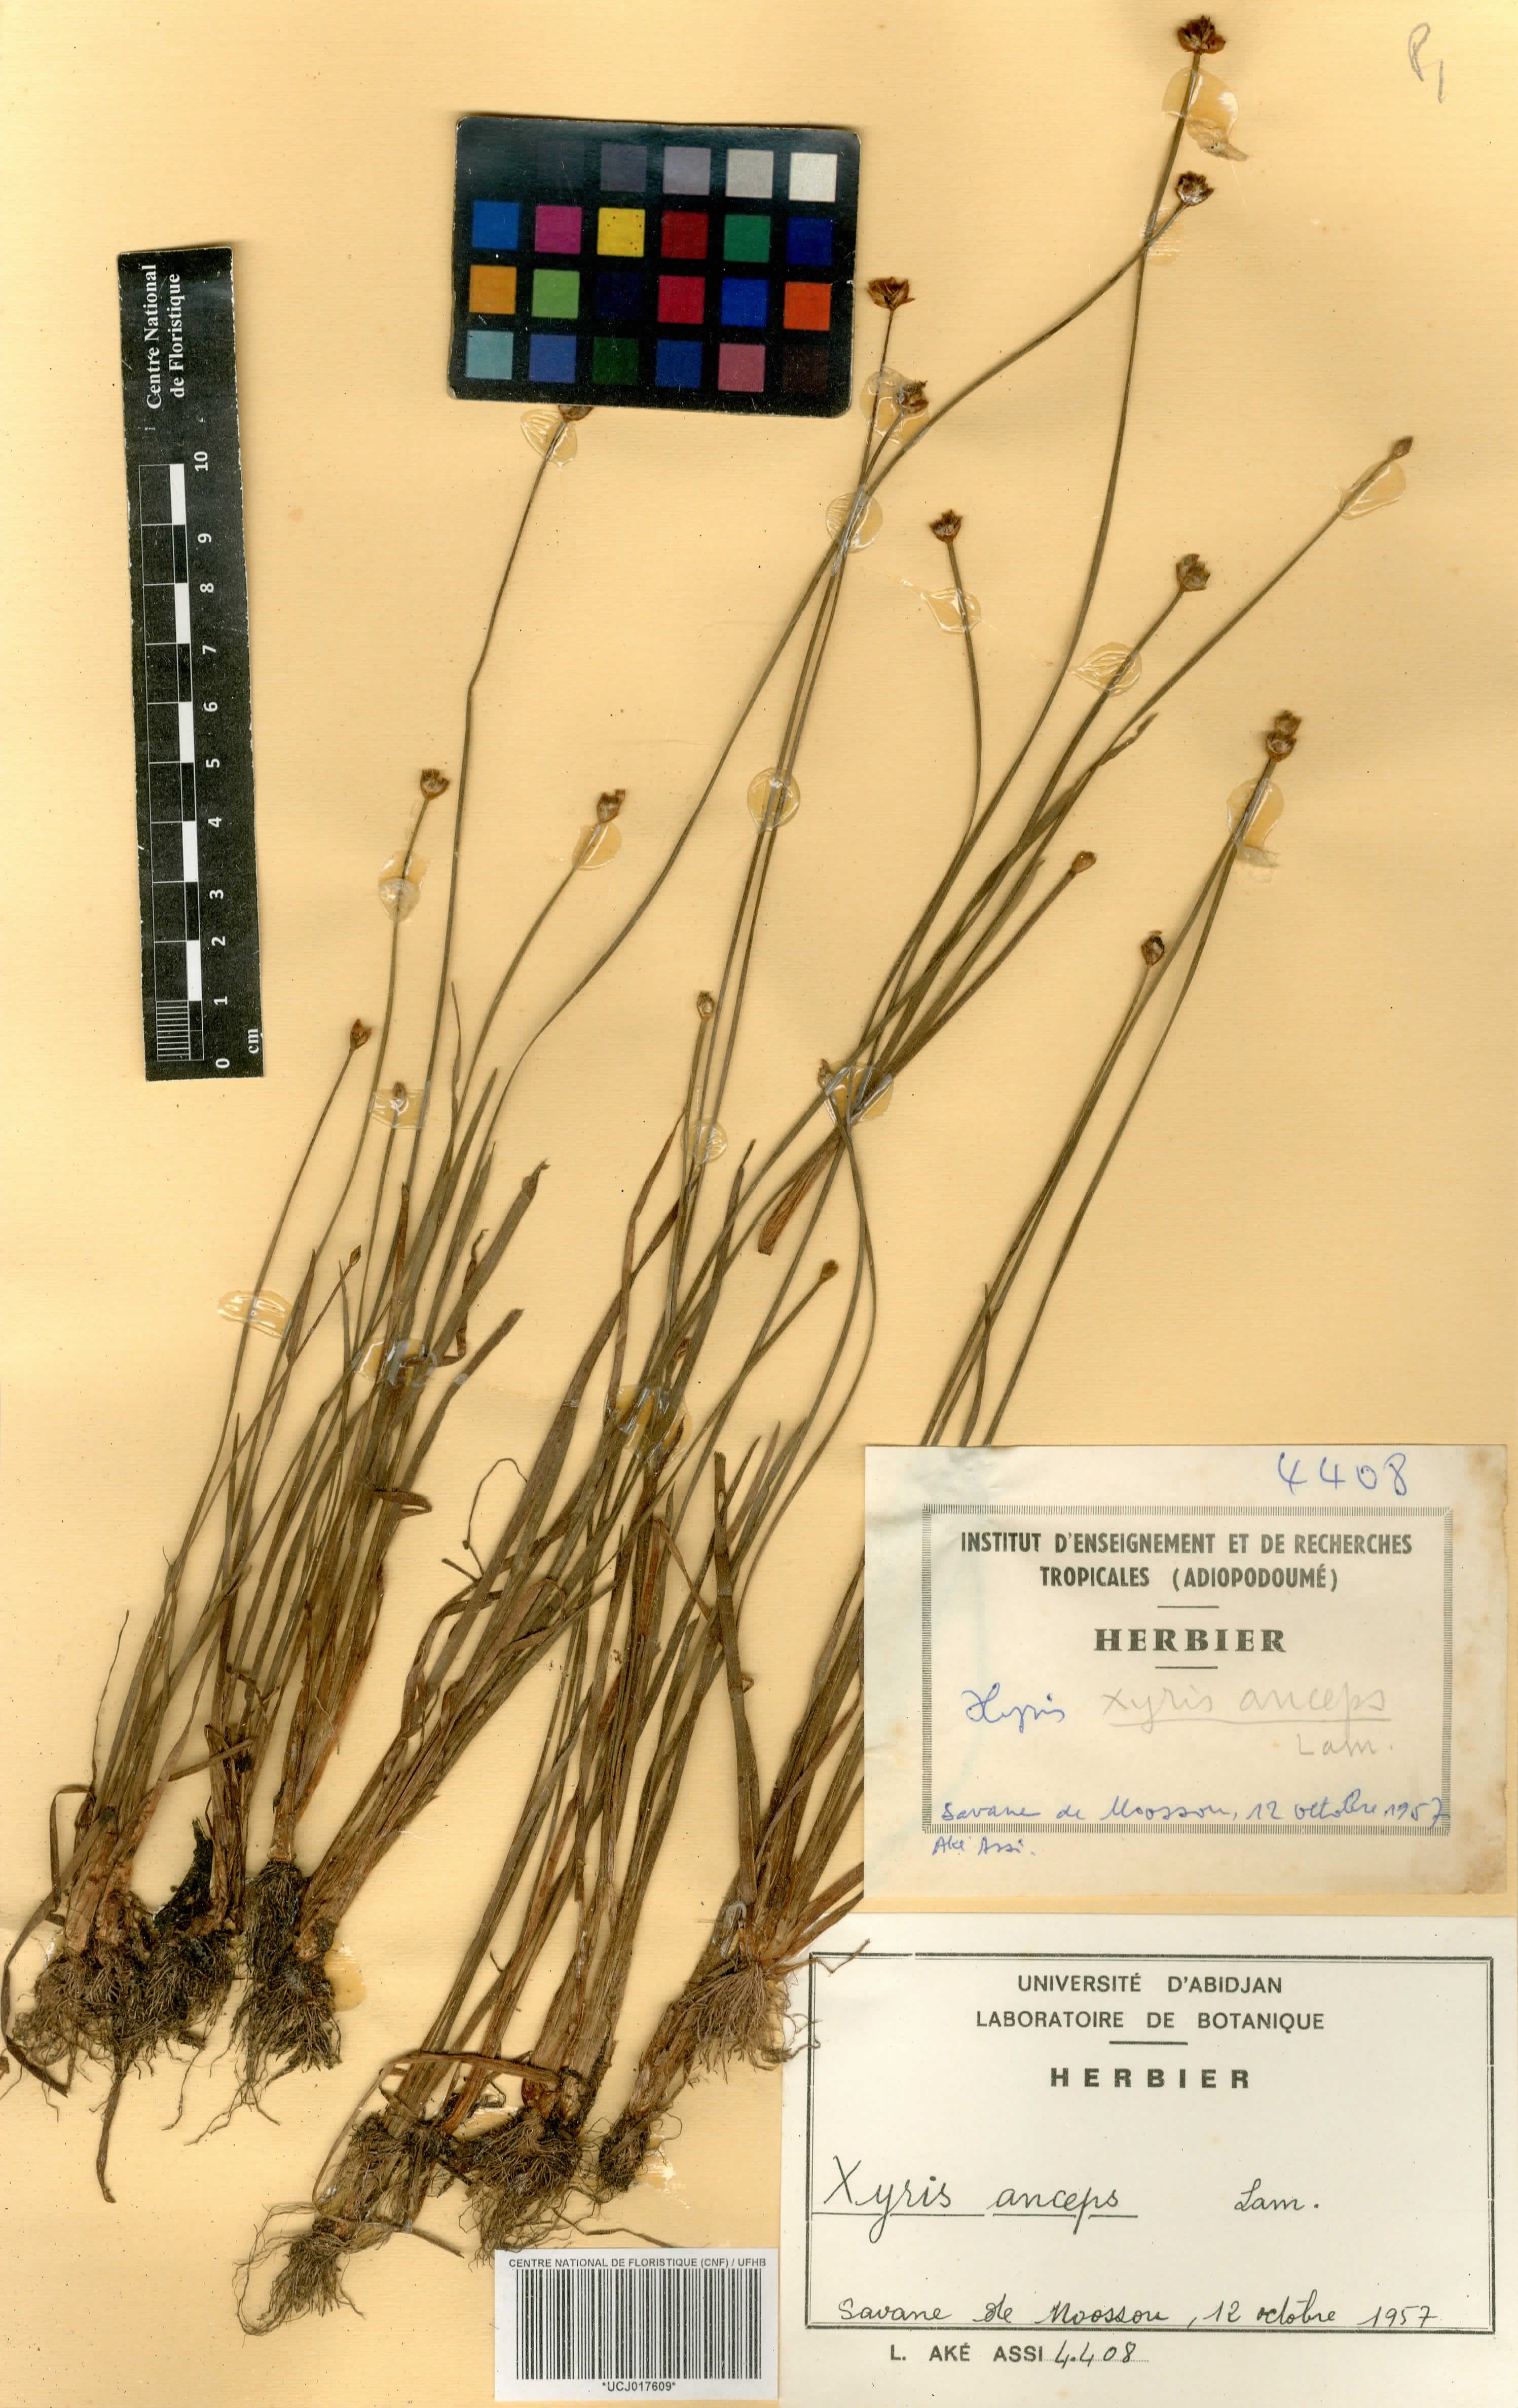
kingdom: Plantae
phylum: Tracheophyta
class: Liliopsida
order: Poales
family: Xyridaceae
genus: Xyris
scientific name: Xyris anceps
